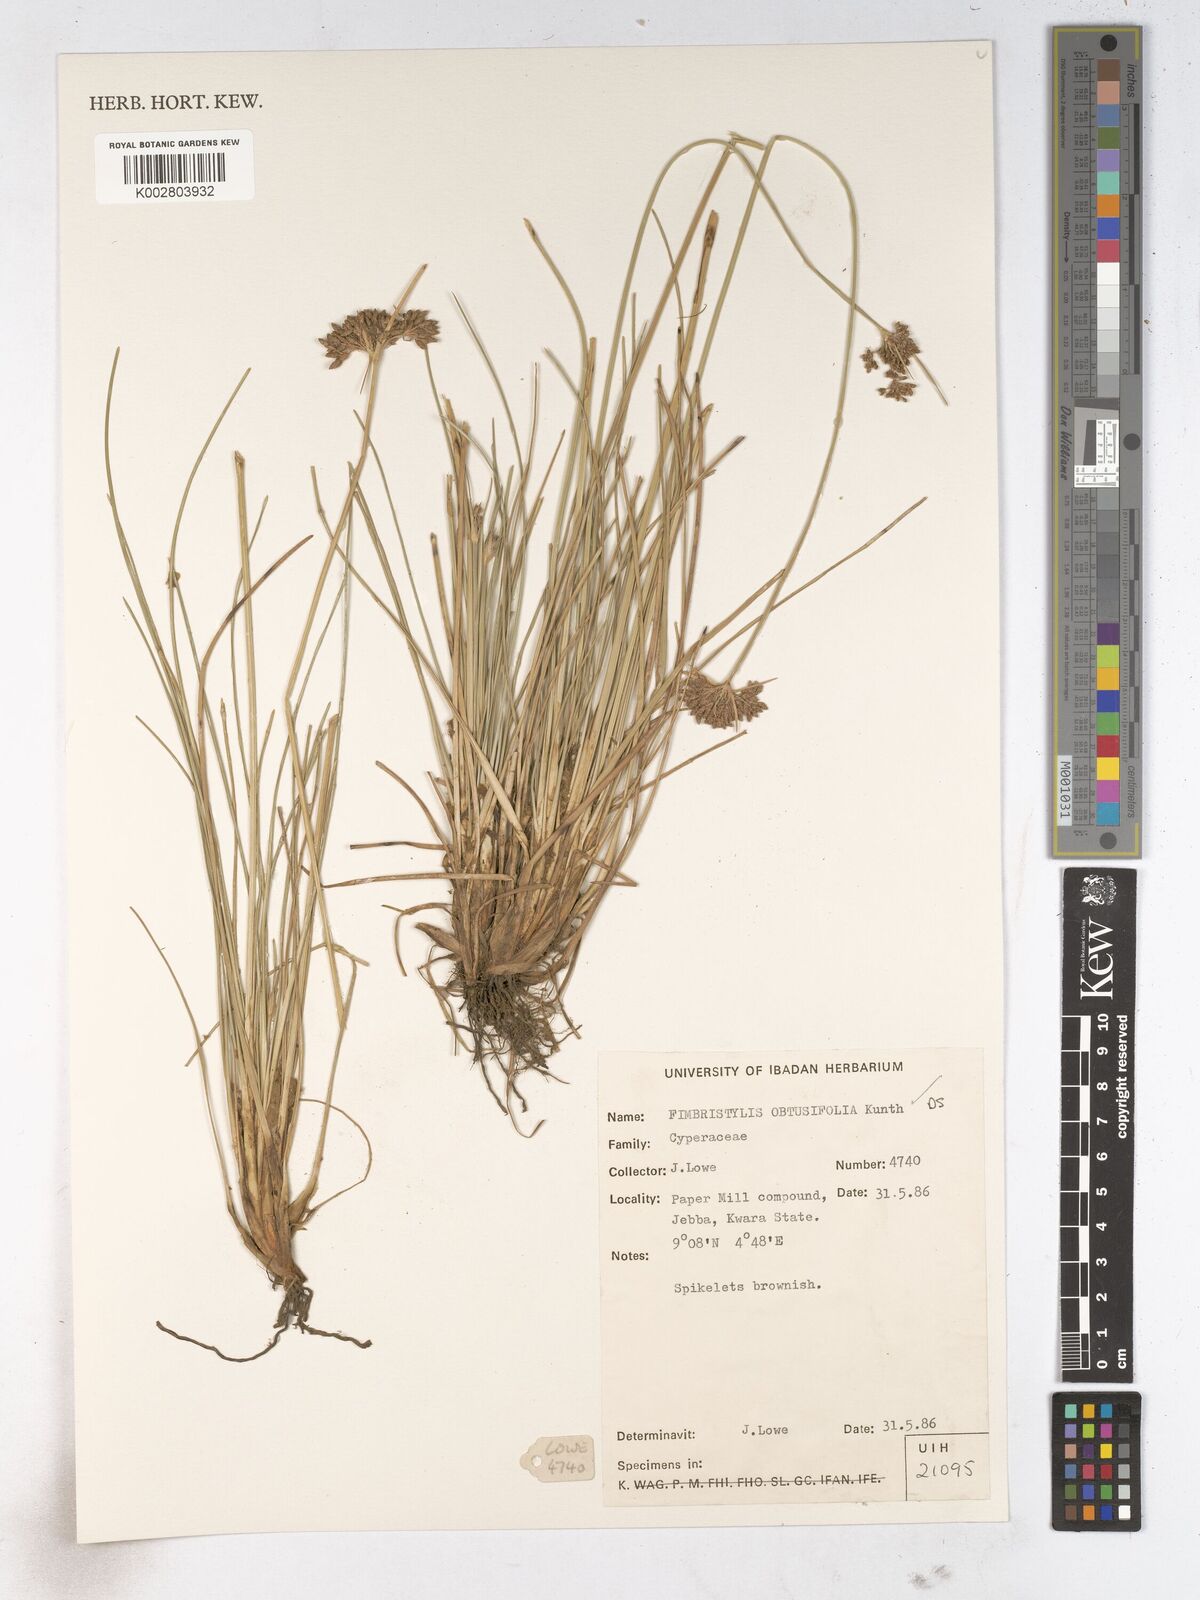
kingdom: Plantae
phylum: Tracheophyta
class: Liliopsida
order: Poales
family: Cyperaceae
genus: Fimbristylis
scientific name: Fimbristylis cymosa
